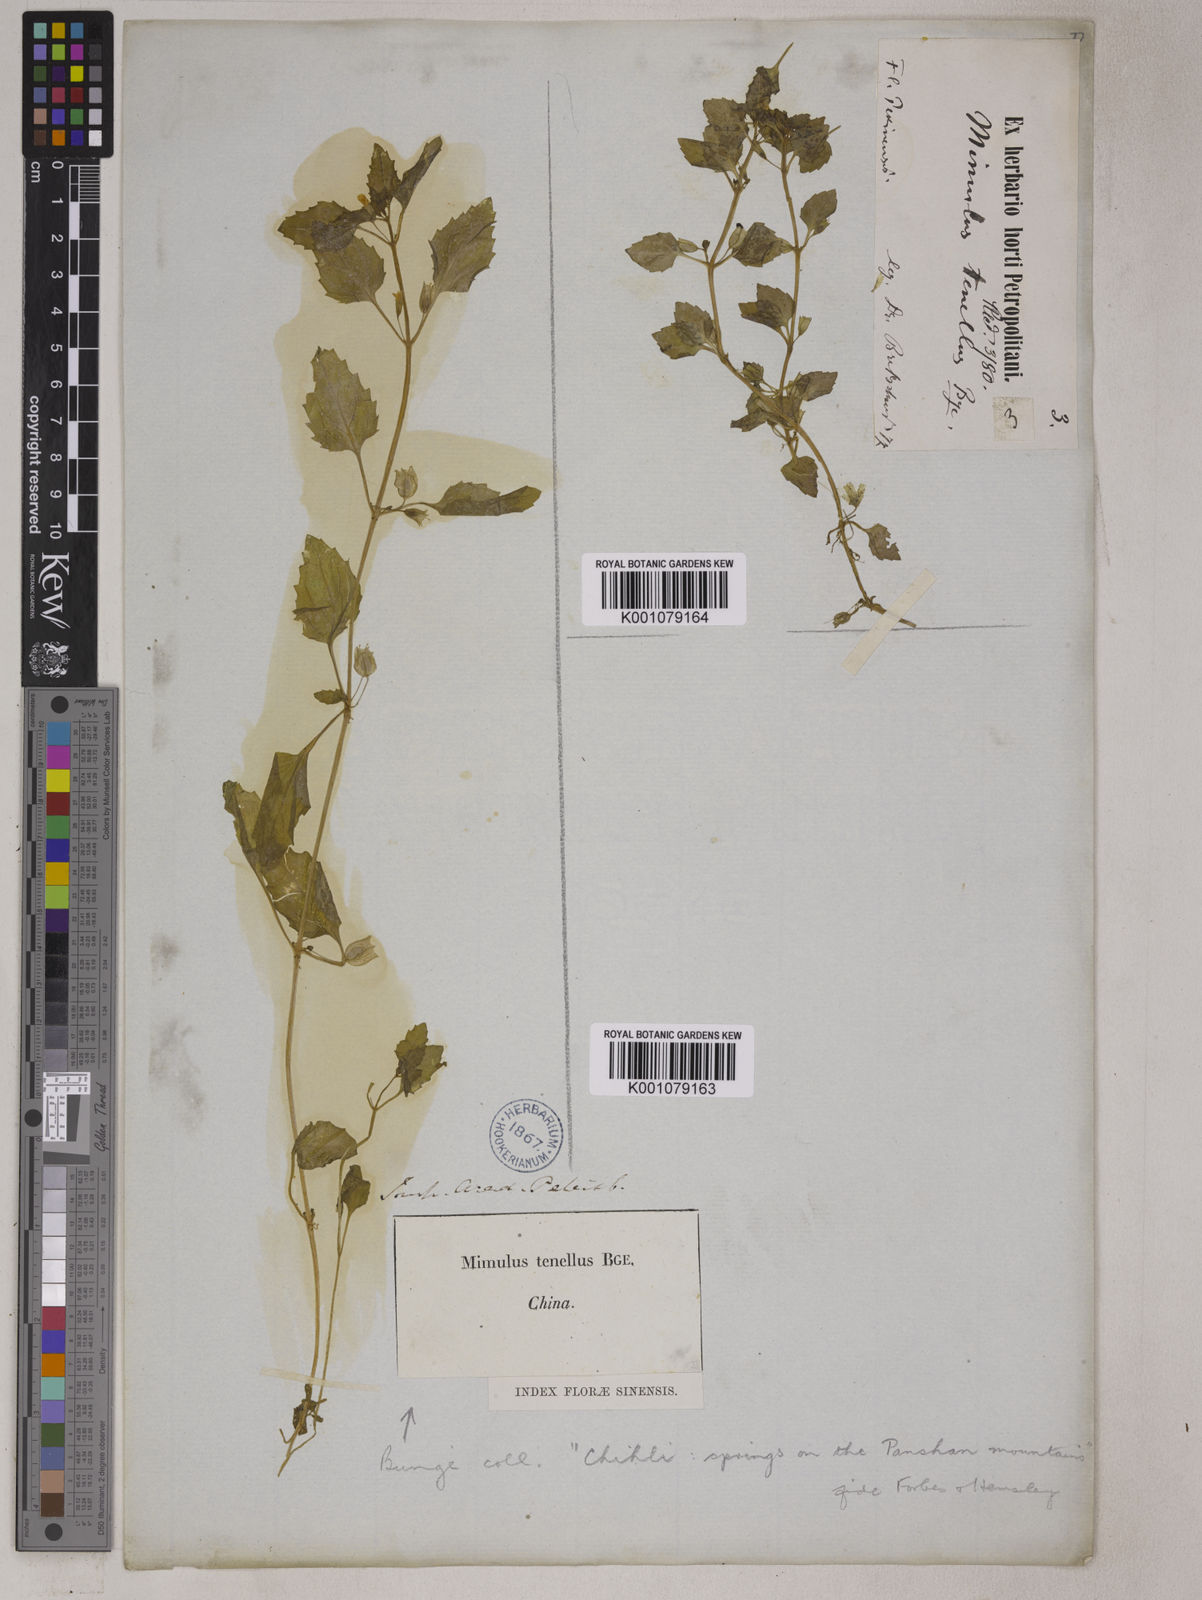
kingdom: Plantae
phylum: Tracheophyta
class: Magnoliopsida
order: Lamiales
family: Phrymaceae
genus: Erythranthe
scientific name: Erythranthe tenella
